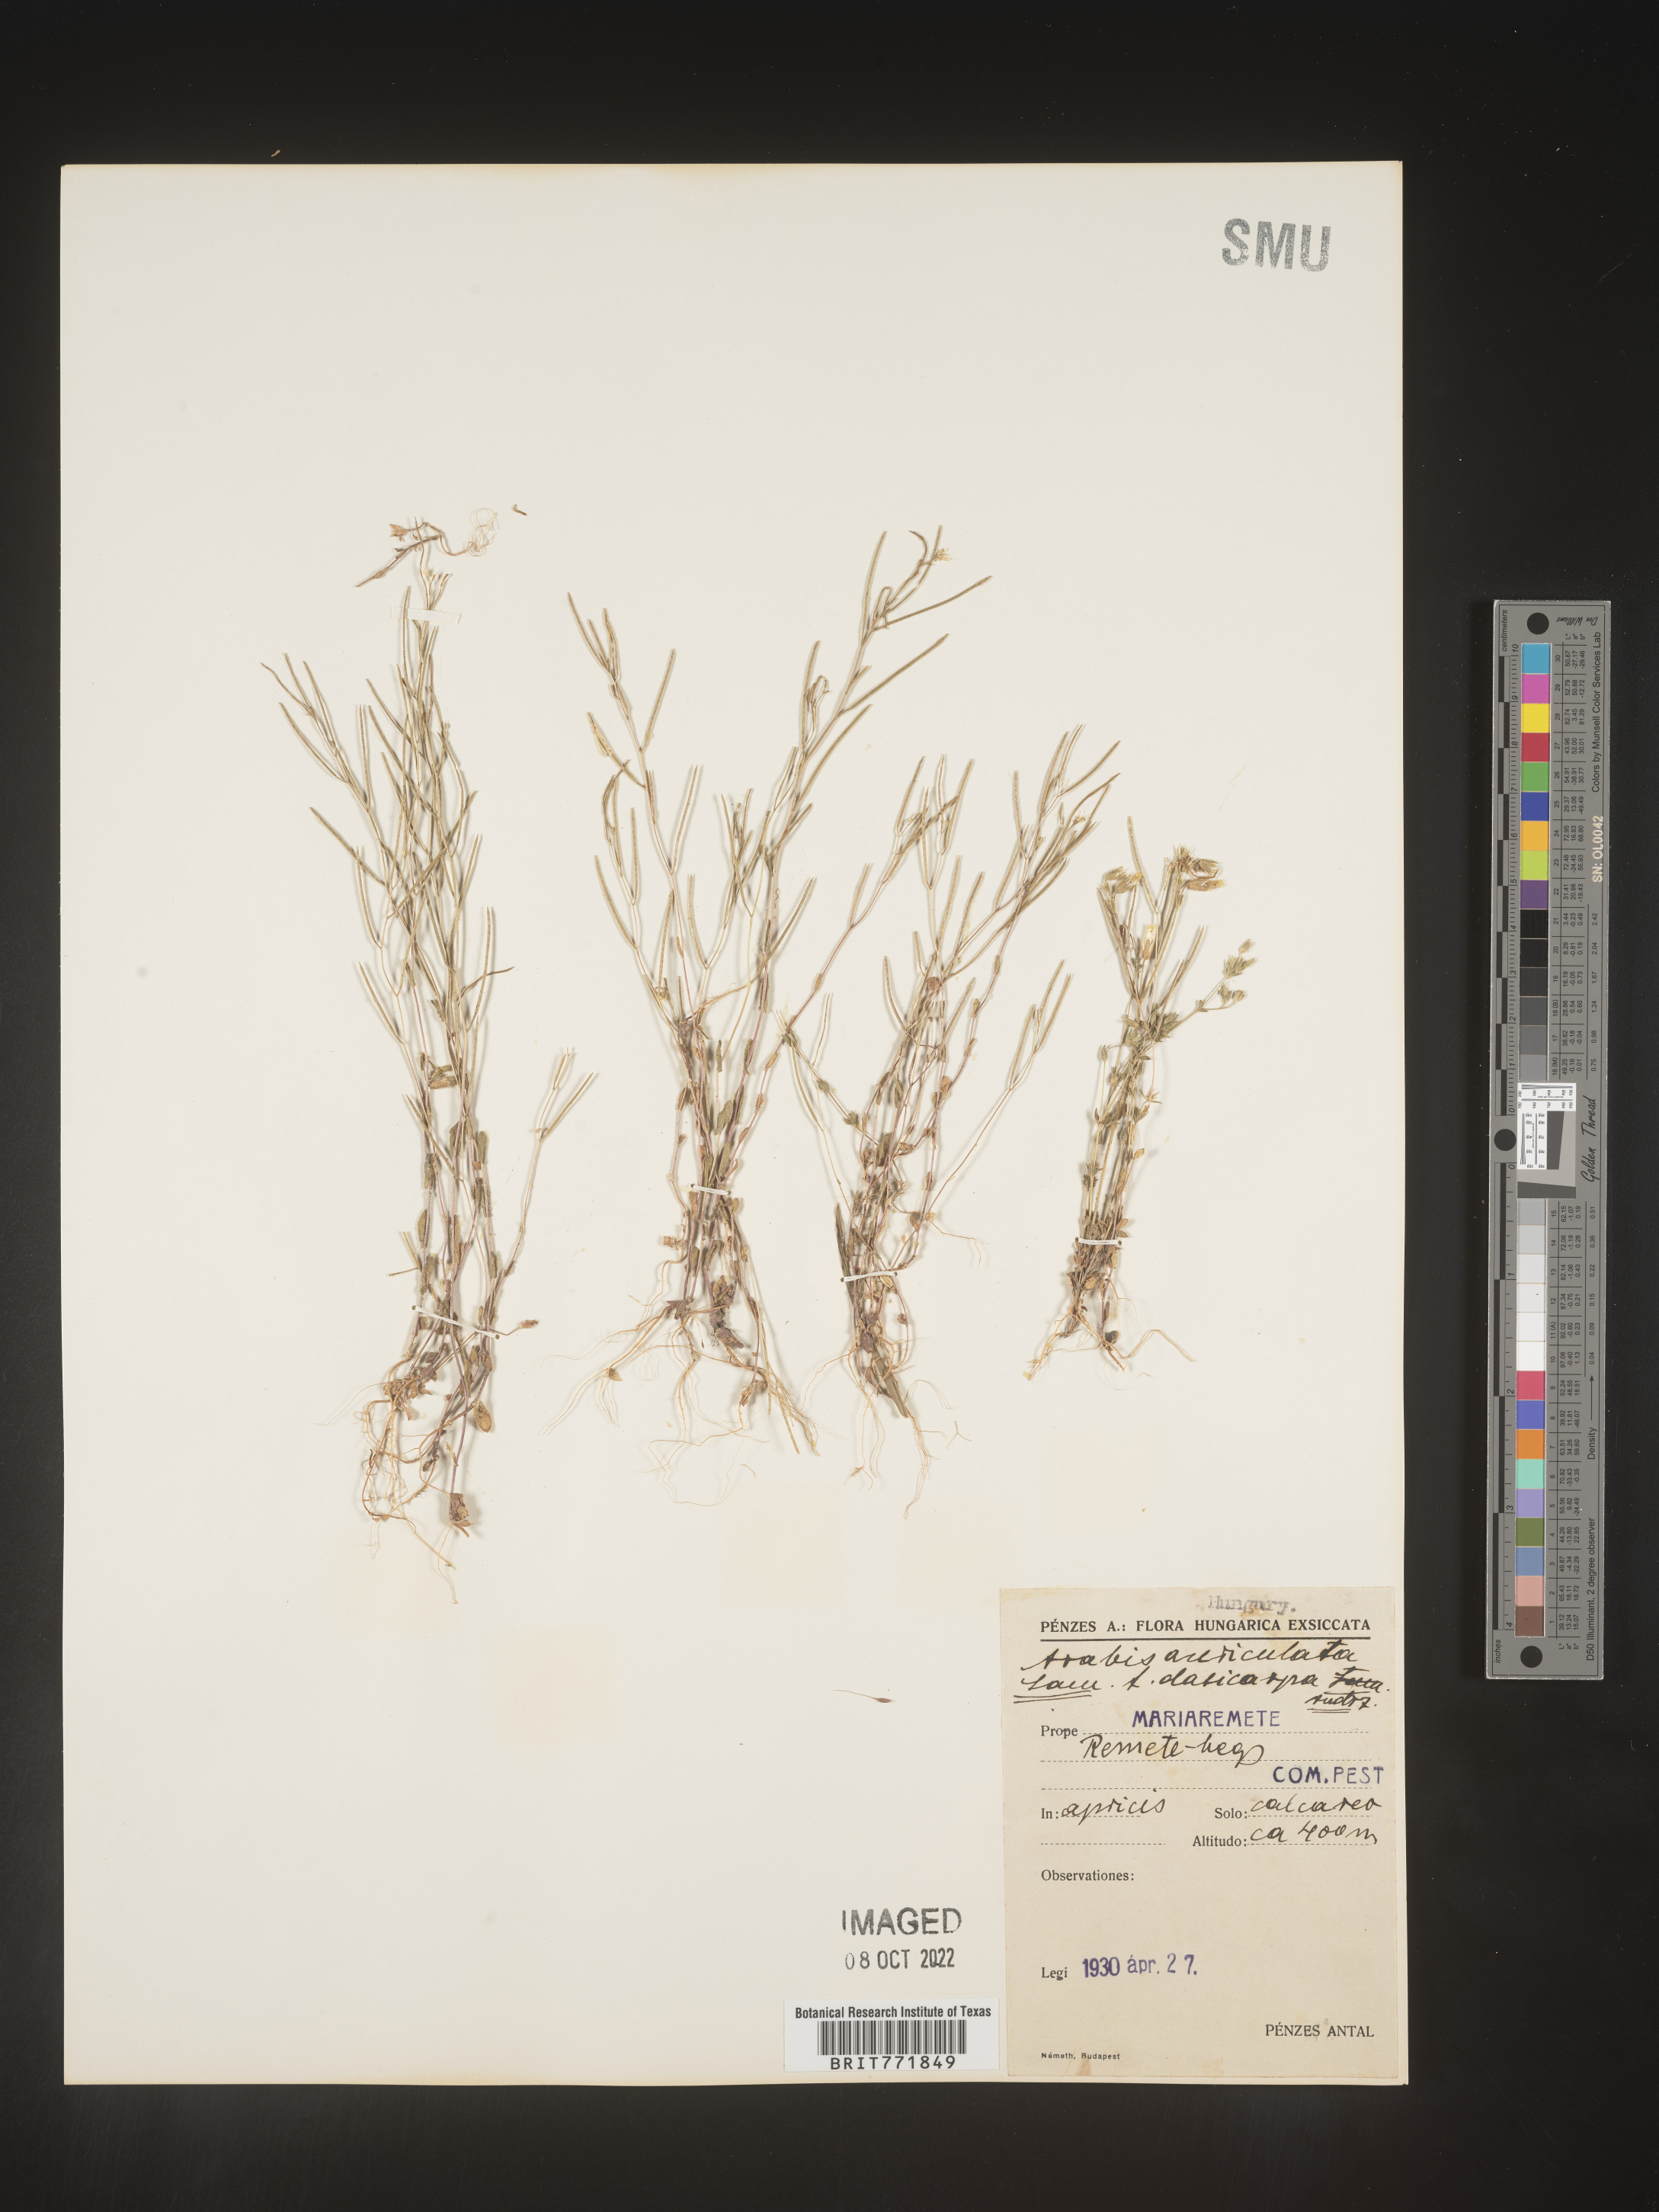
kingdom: Plantae
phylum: Tracheophyta
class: Magnoliopsida
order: Brassicales
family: Brassicaceae
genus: Arabis
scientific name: Arabis
